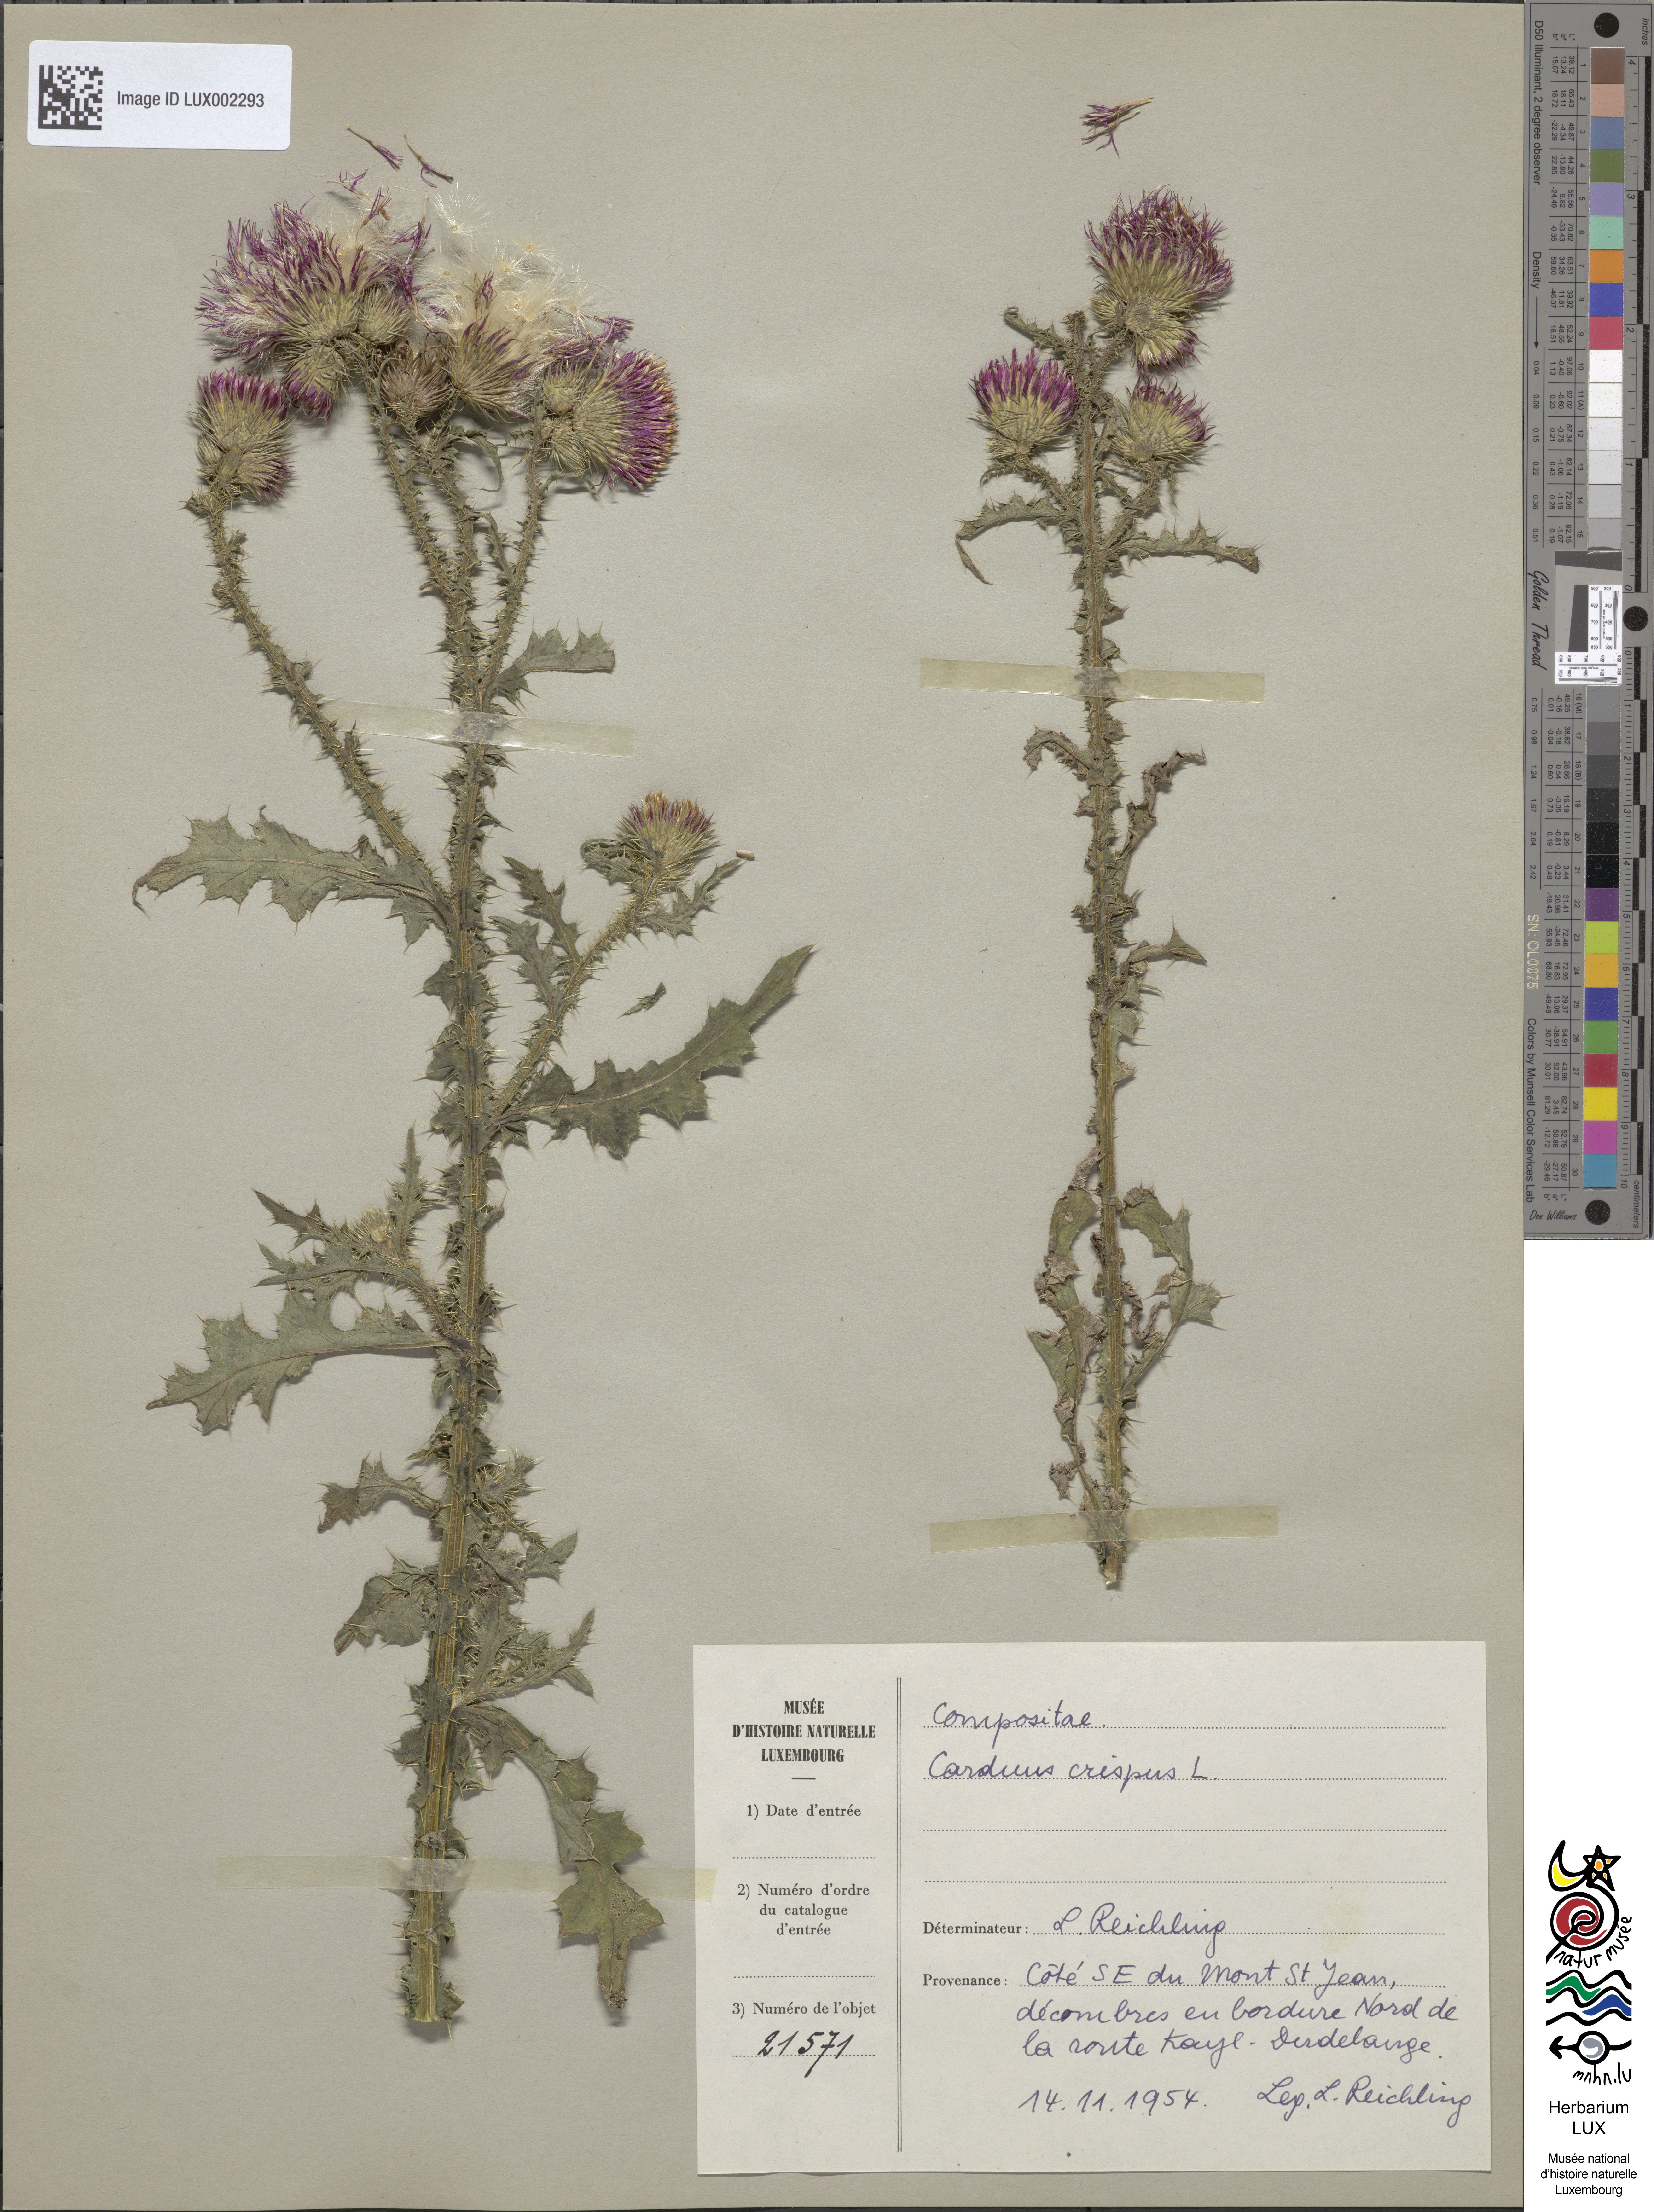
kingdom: Plantae
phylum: Tracheophyta
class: Magnoliopsida
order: Asterales
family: Asteraceae
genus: Carduus
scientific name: Carduus crispus
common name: Welted thistle
